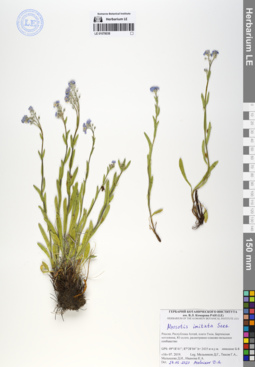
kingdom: Plantae
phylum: Tracheophyta
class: Magnoliopsida
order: Boraginales
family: Boraginaceae
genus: Myosotis
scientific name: Myosotis imitata
